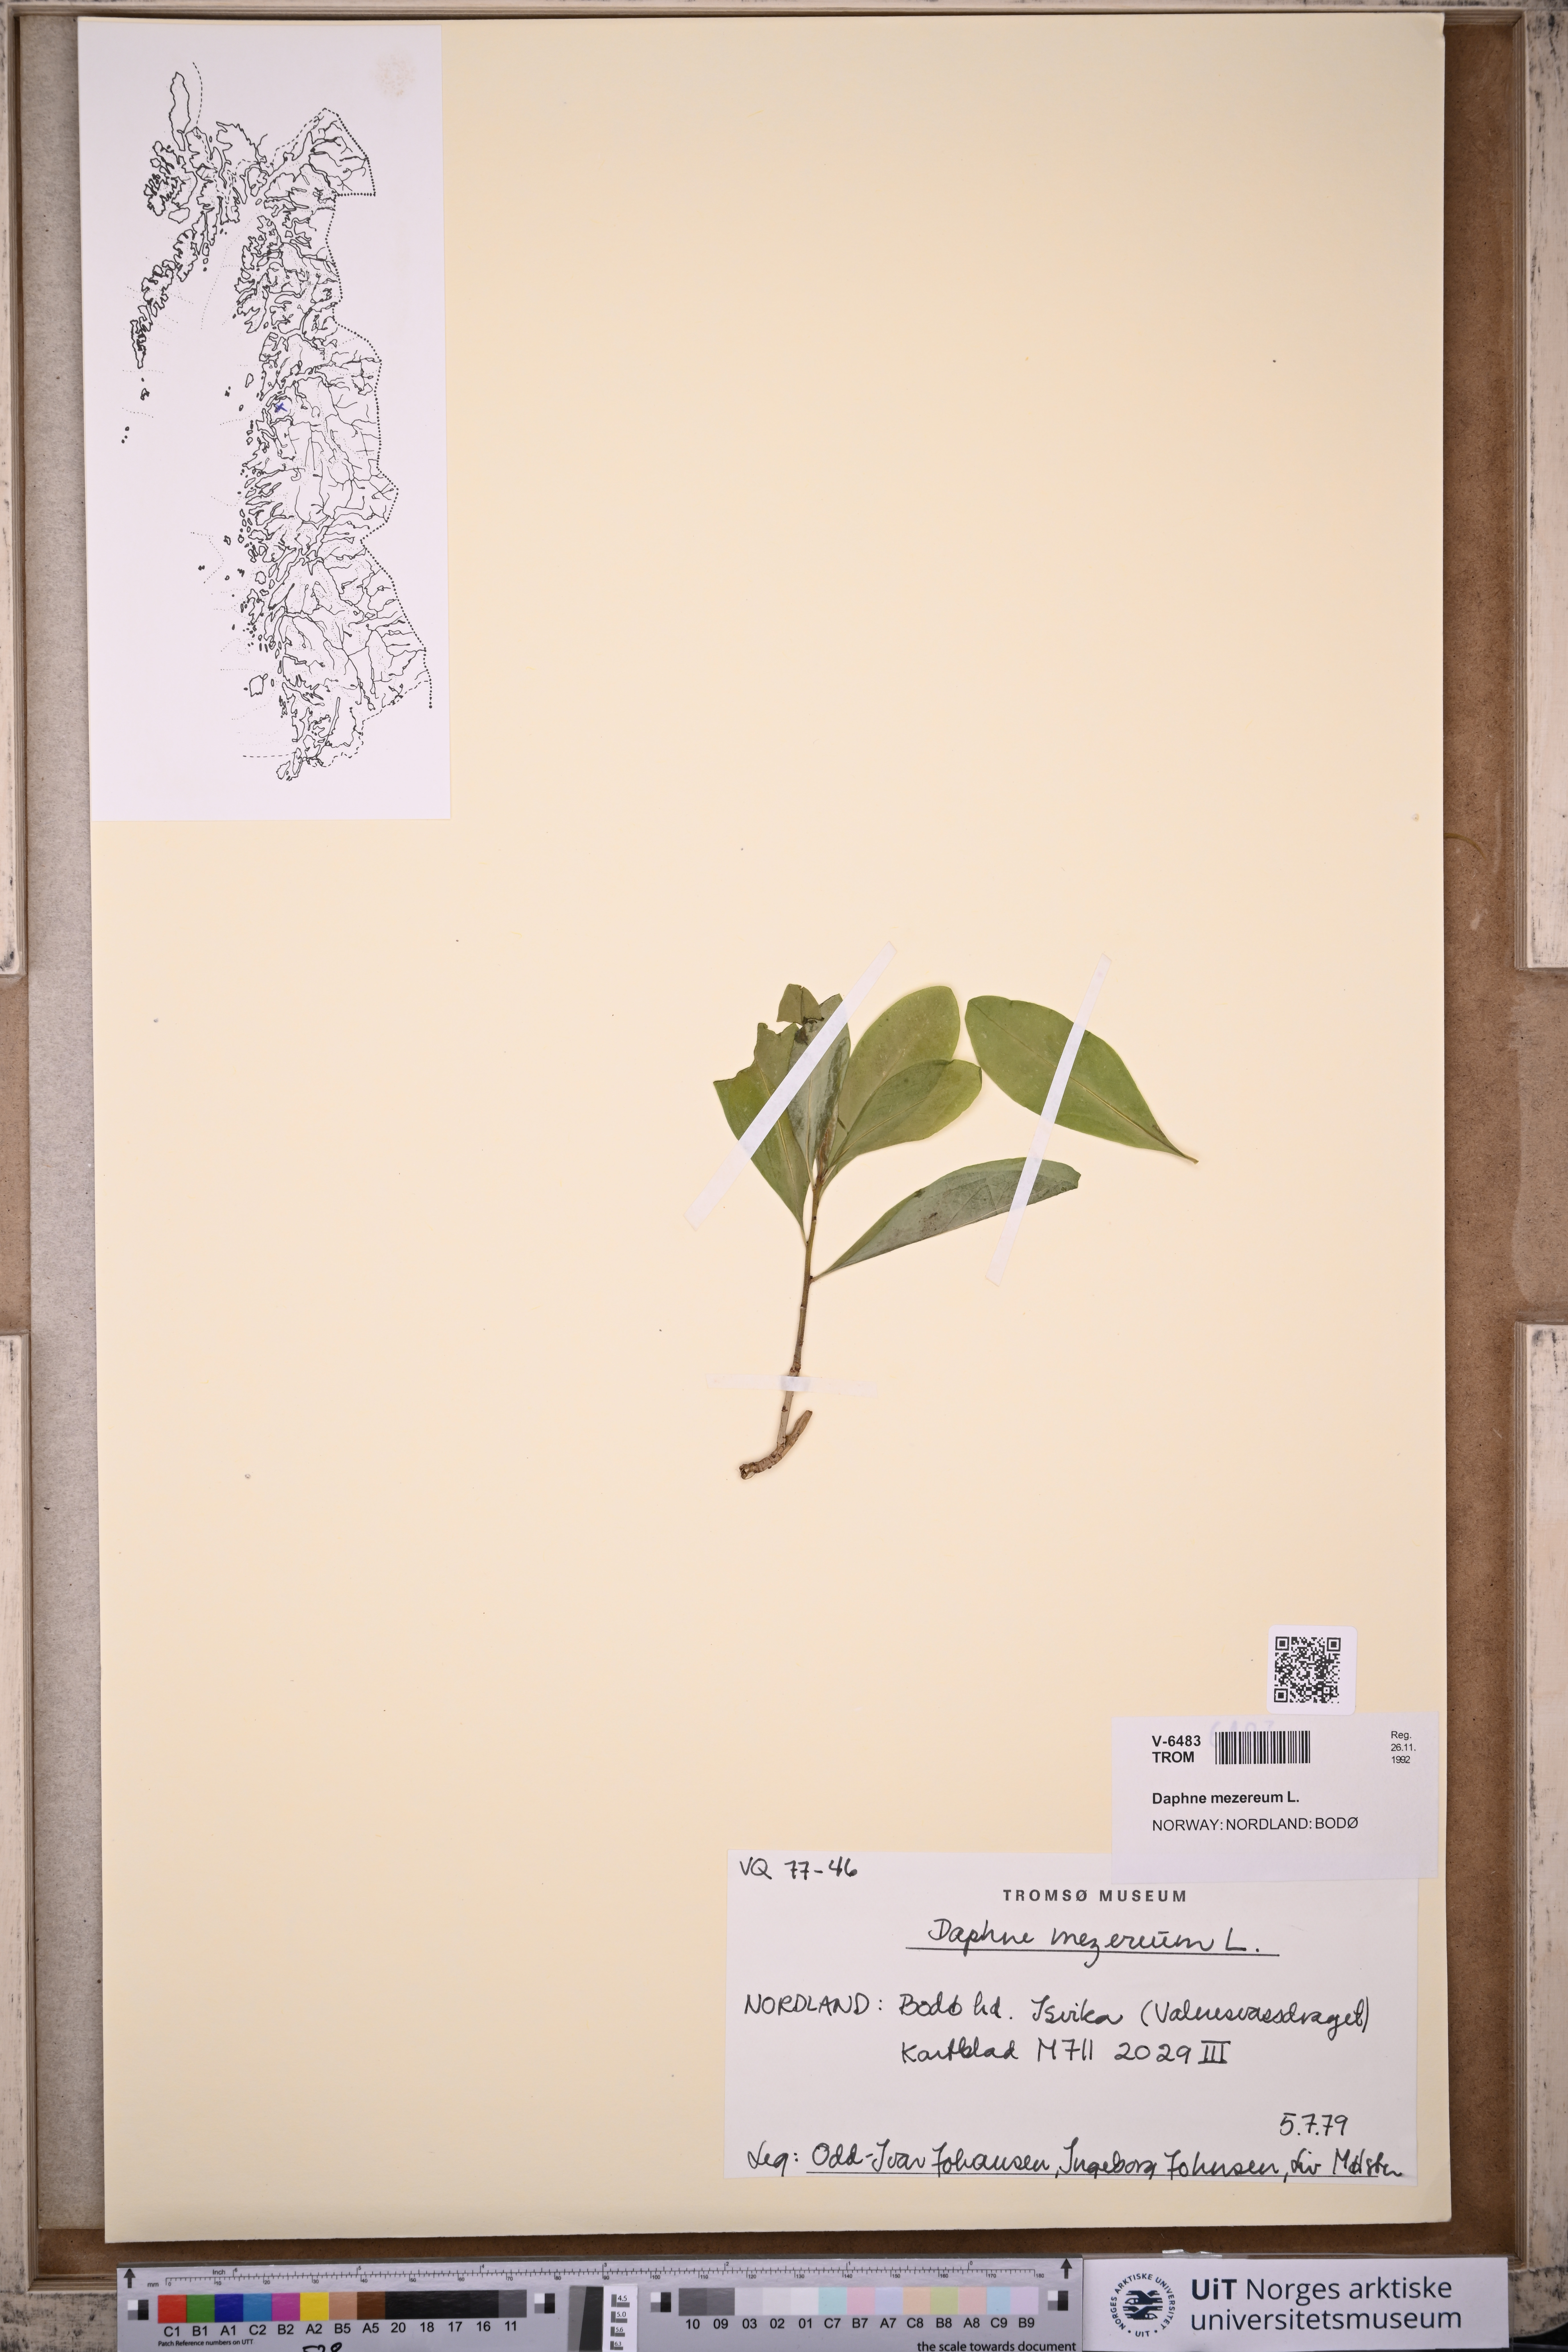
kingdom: Plantae
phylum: Tracheophyta
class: Magnoliopsida
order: Malvales
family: Thymelaeaceae
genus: Daphne
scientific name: Daphne mezereum
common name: Mezereon
